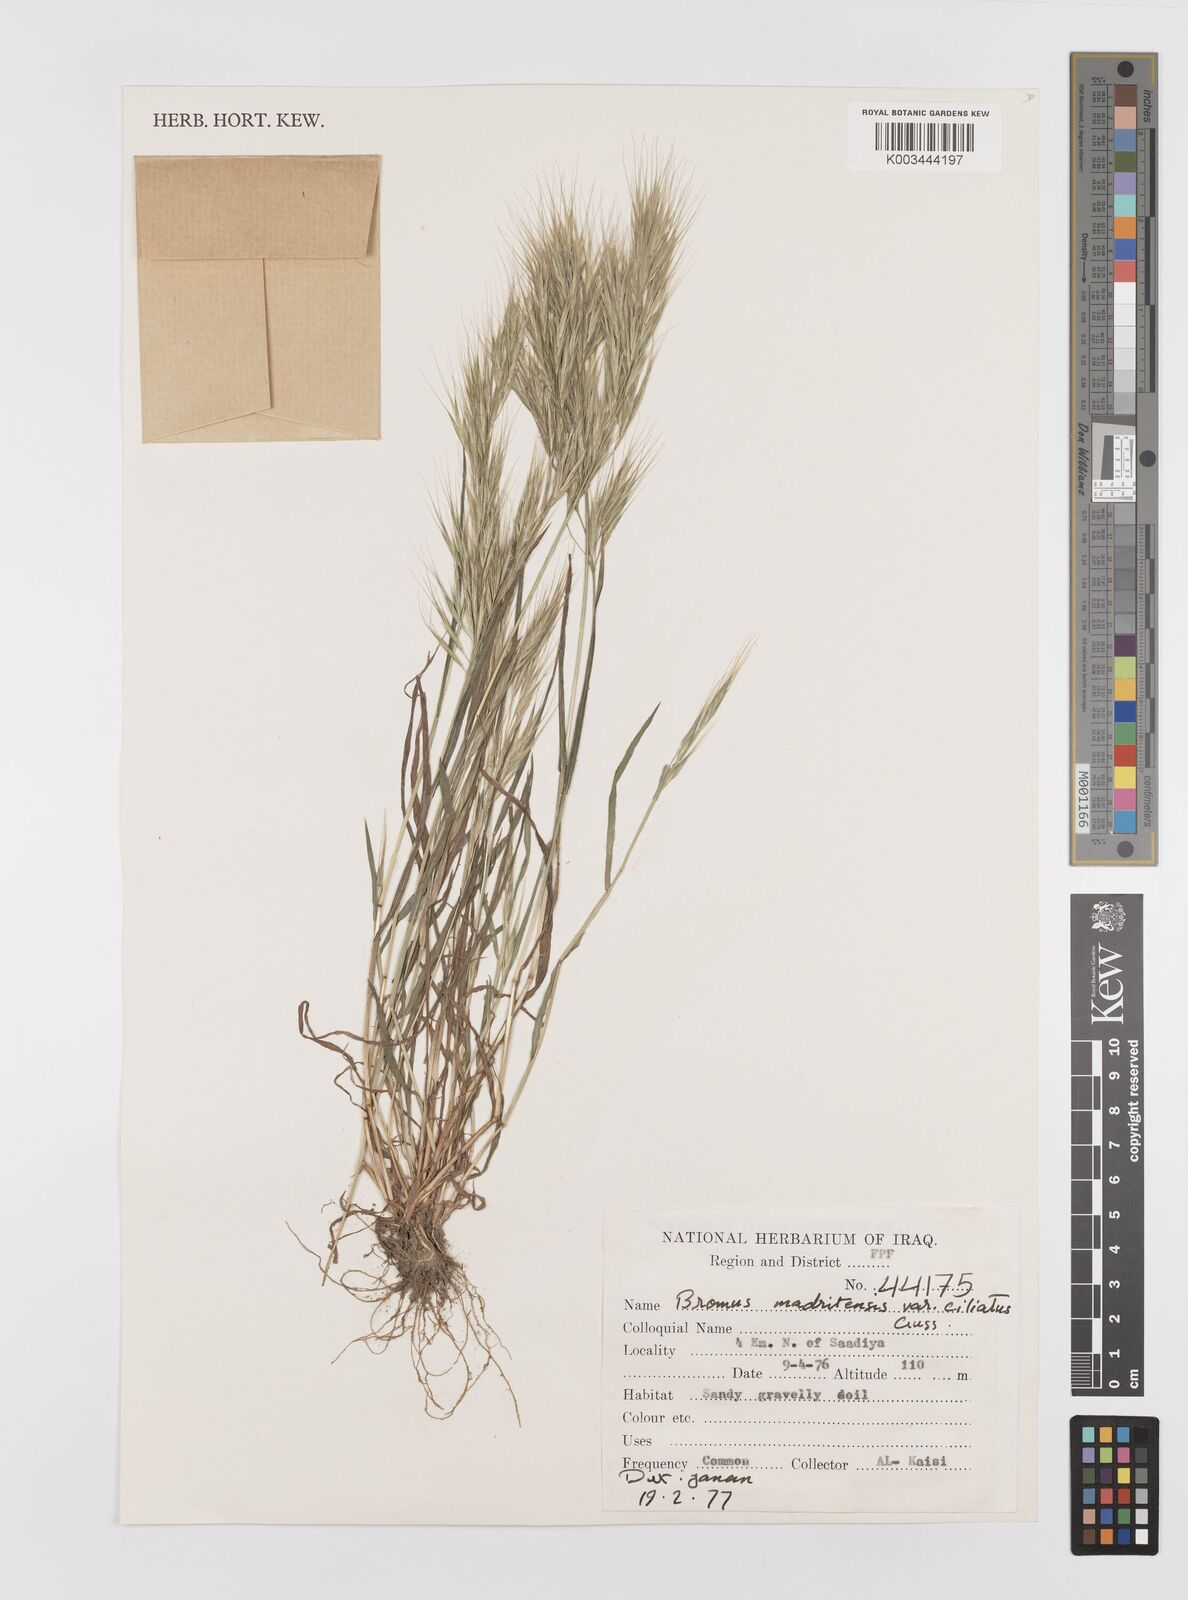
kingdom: Plantae
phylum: Tracheophyta
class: Liliopsida
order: Poales
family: Poaceae
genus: Bromus
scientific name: Bromus madritensis
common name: Compact brome
